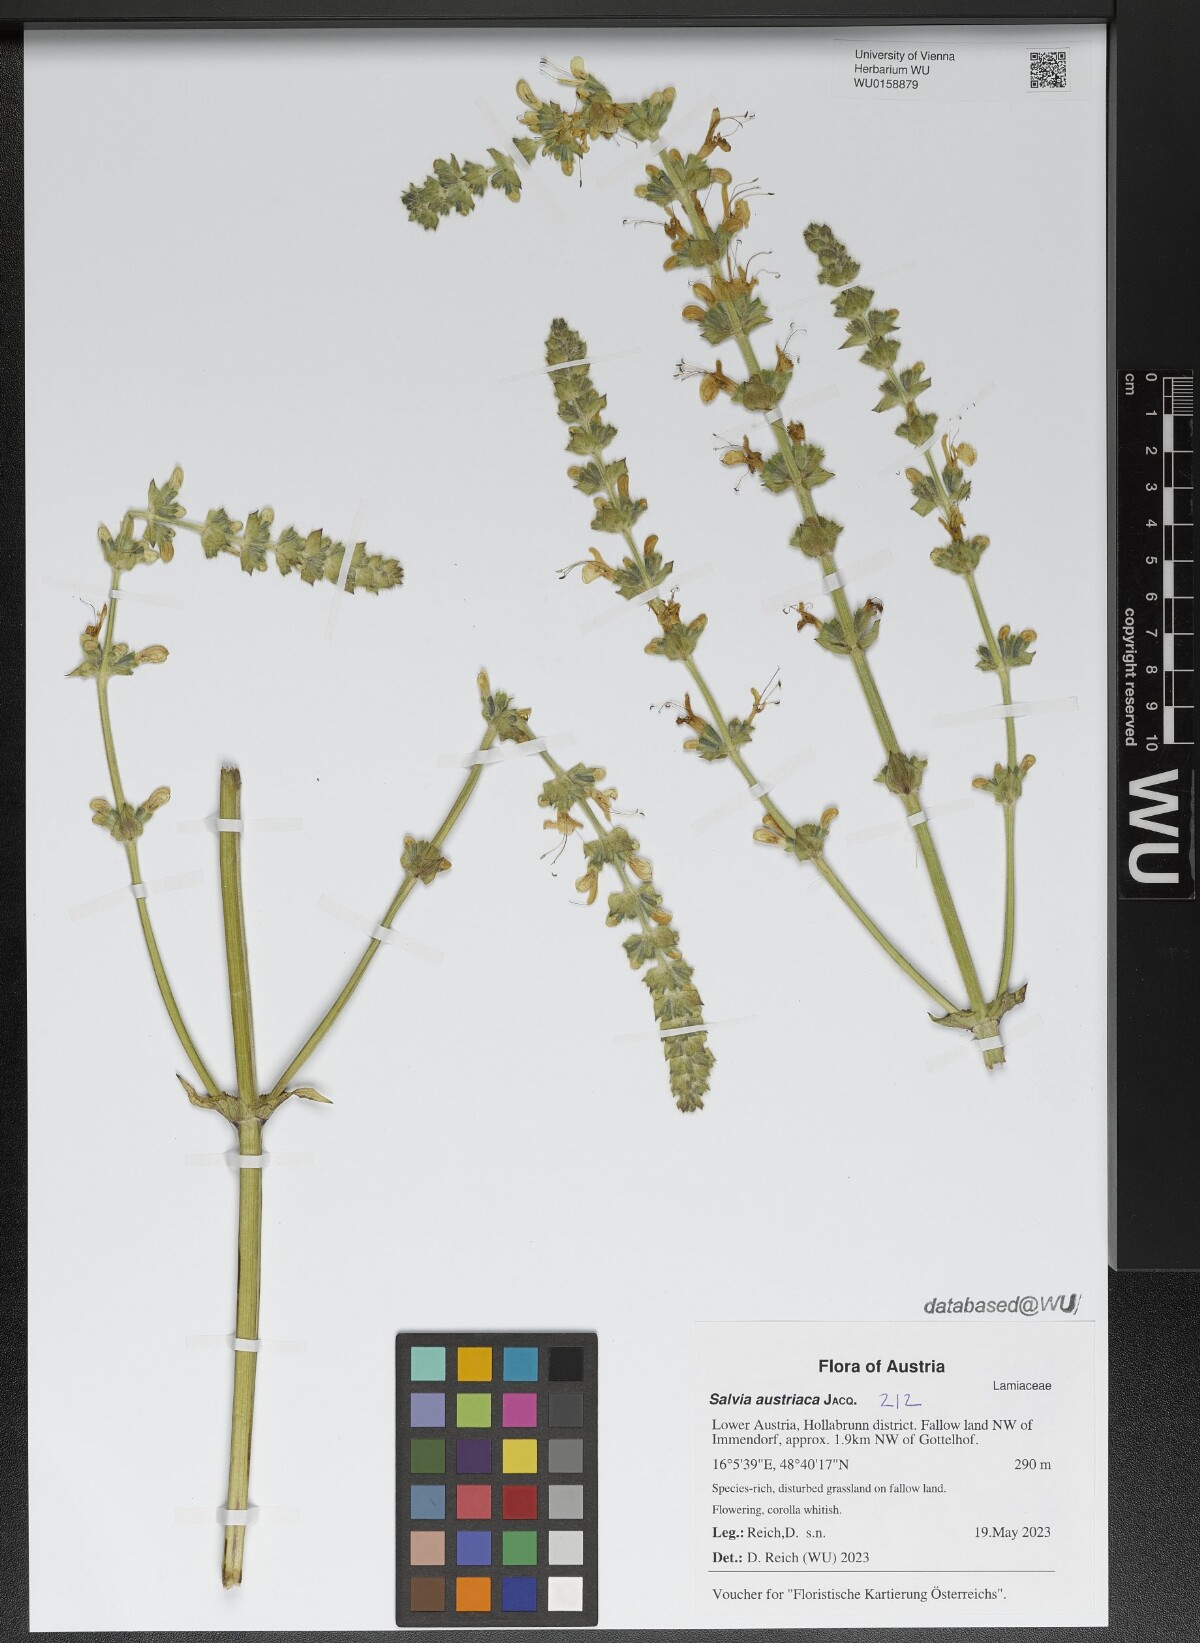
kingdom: Plantae
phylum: Tracheophyta
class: Magnoliopsida
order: Lamiales
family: Lamiaceae
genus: Salvia
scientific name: Salvia austriaca
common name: Austrian sage
